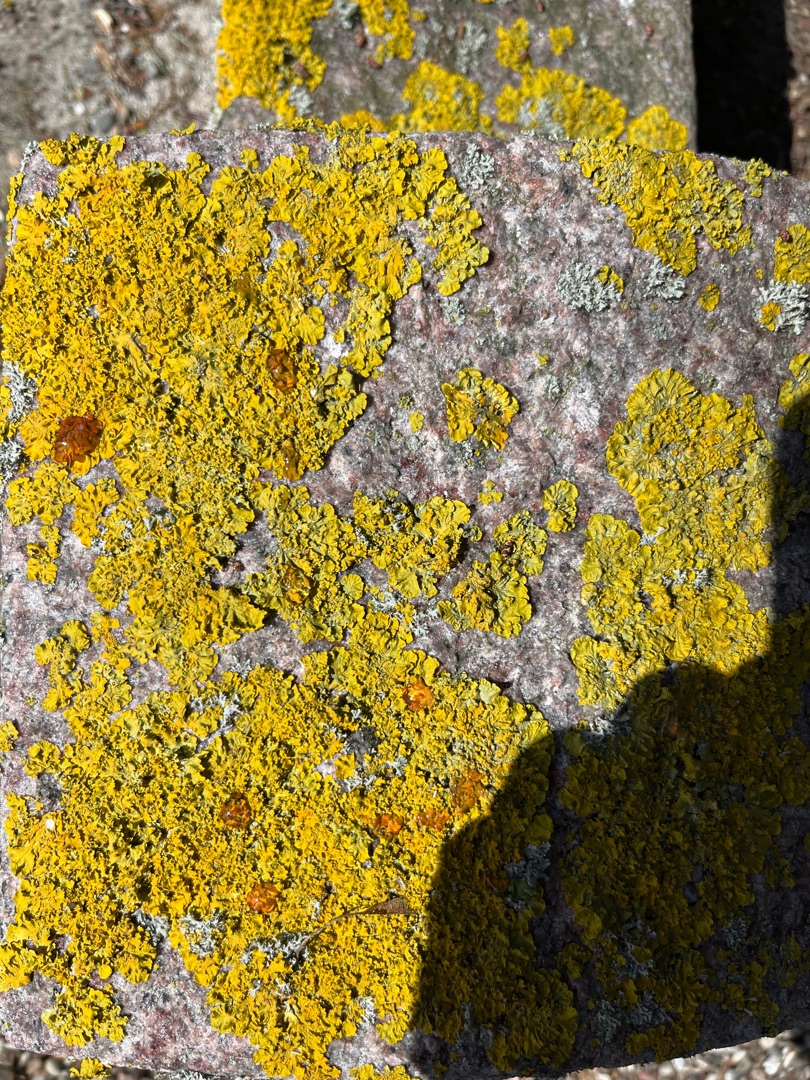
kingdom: Fungi
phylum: Ascomycota
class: Lecanoromycetes
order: Teloschistales
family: Teloschistaceae
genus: Xanthoria
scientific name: Xanthoria parietina
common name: Almindelig væggelav
